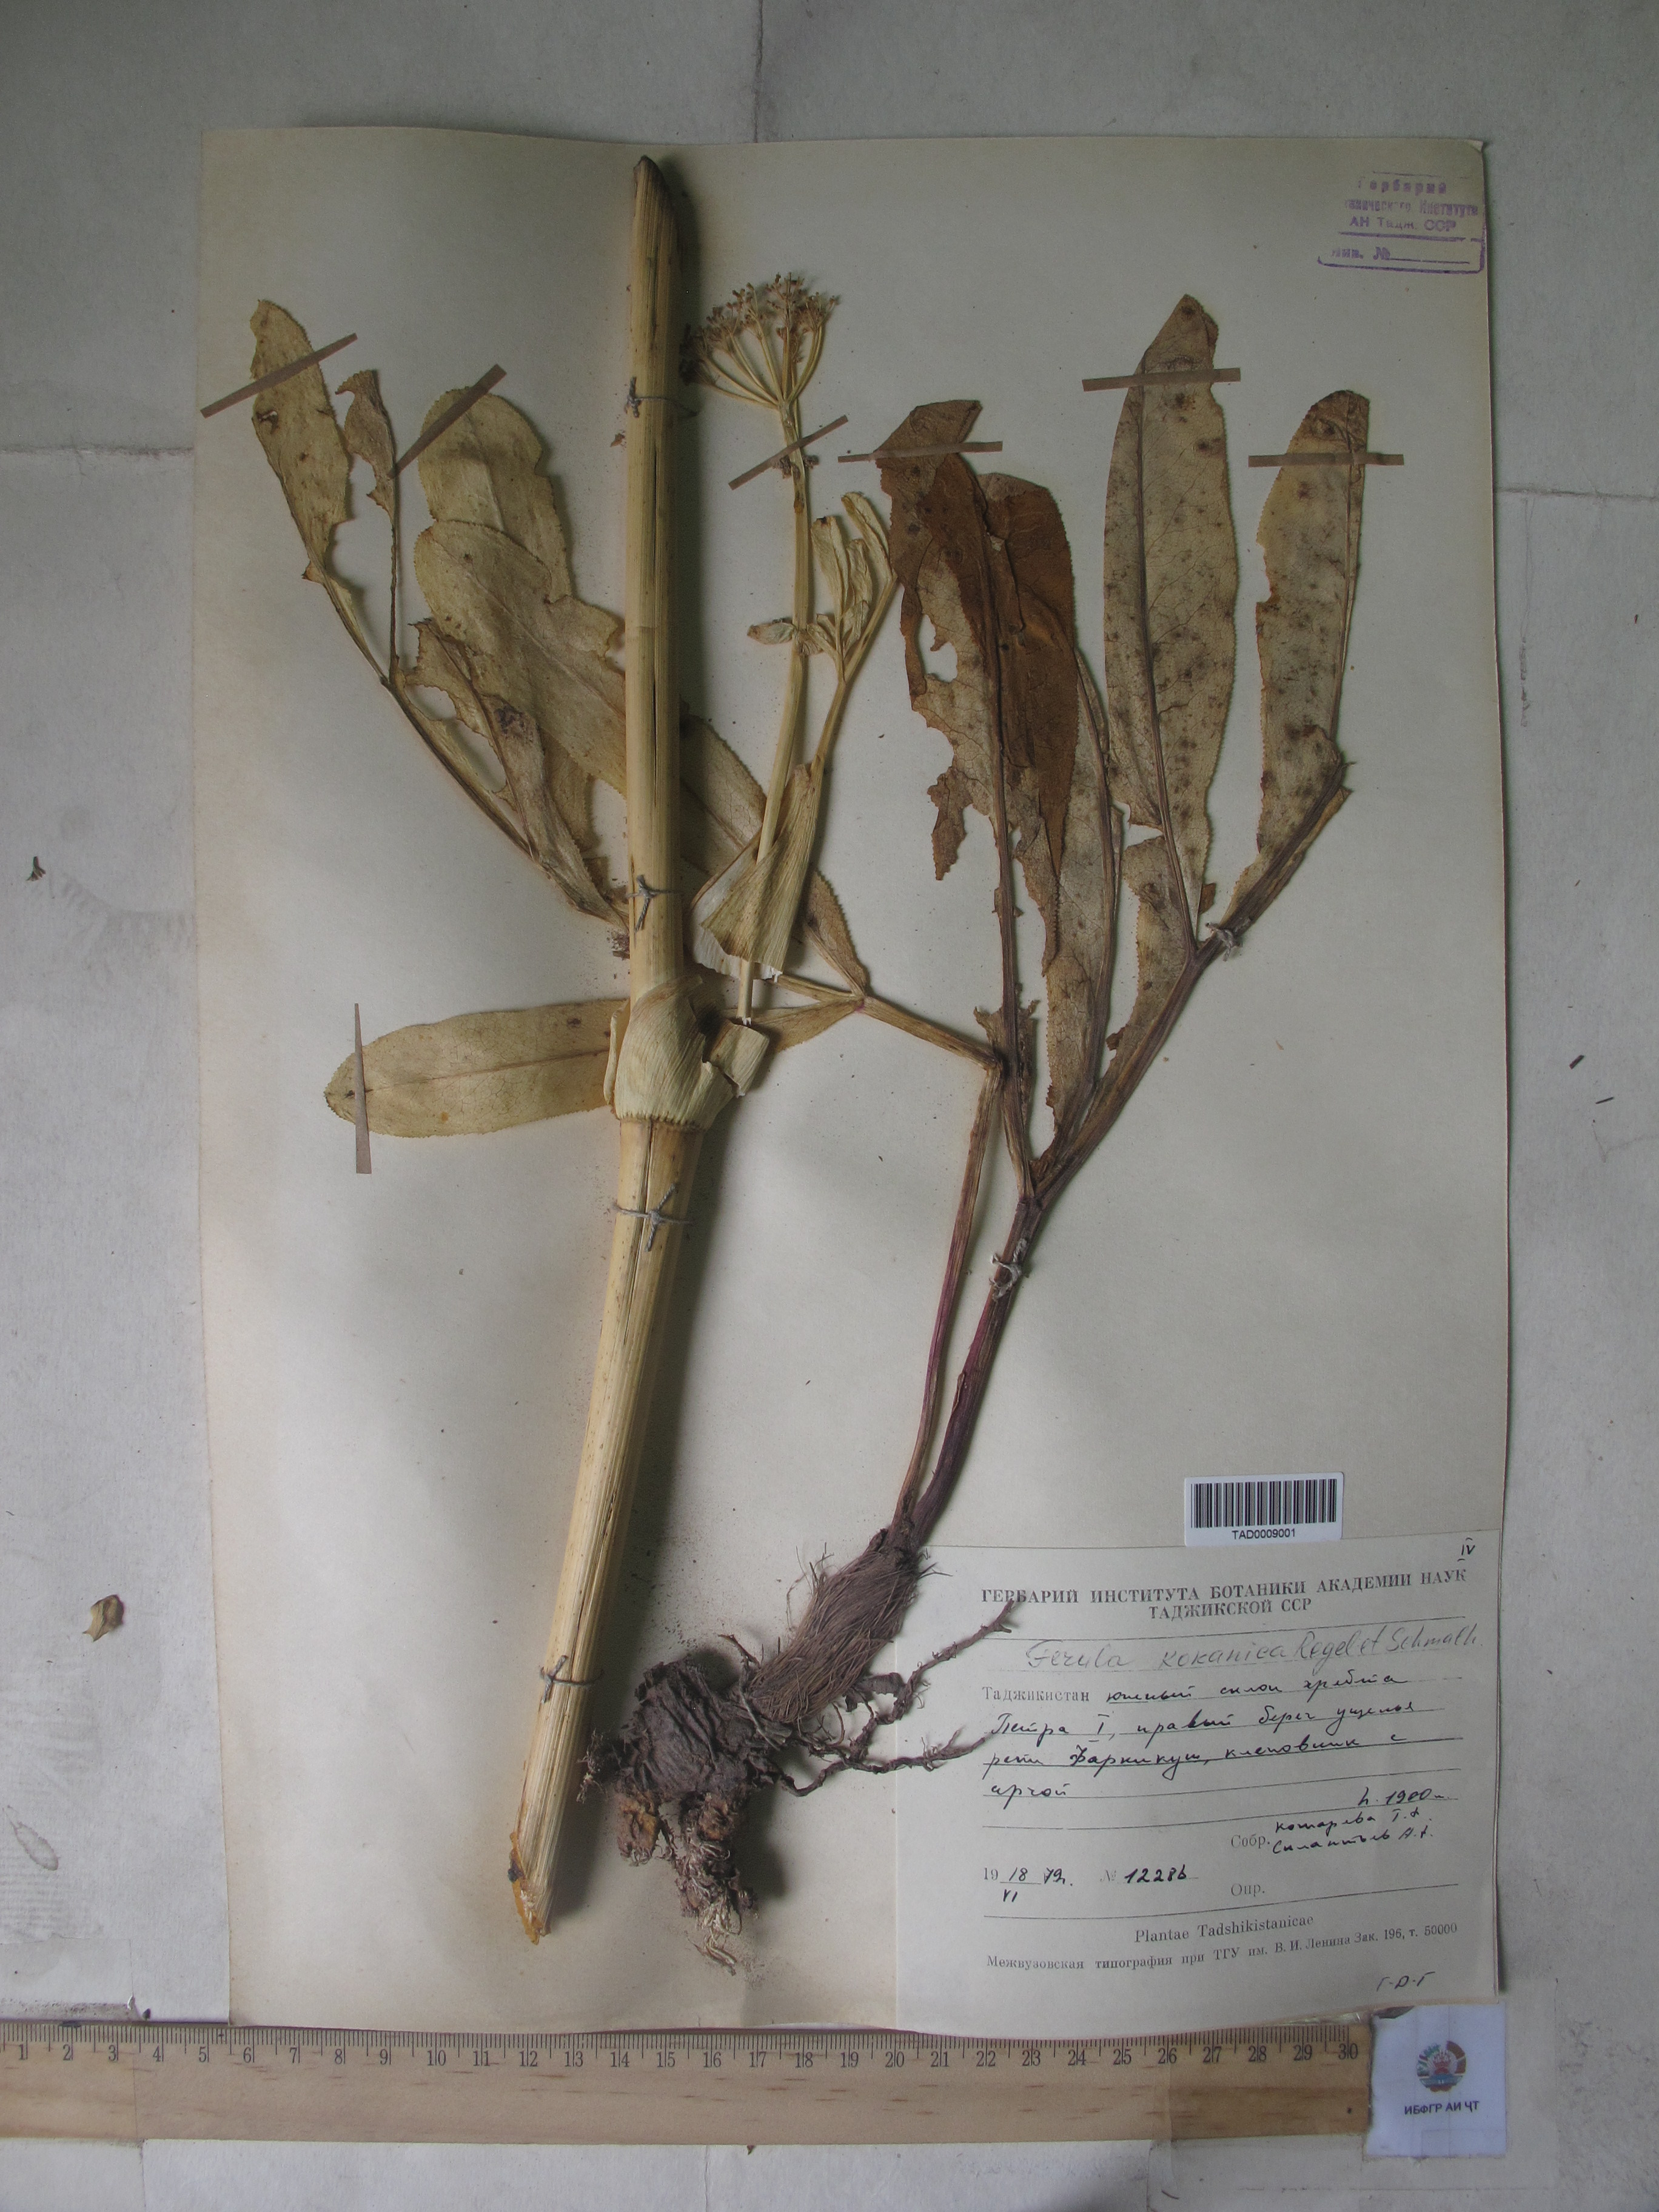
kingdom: Plantae
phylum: Tracheophyta
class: Magnoliopsida
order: Apiales
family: Apiaceae
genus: Ferula
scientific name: Ferula kokanica
